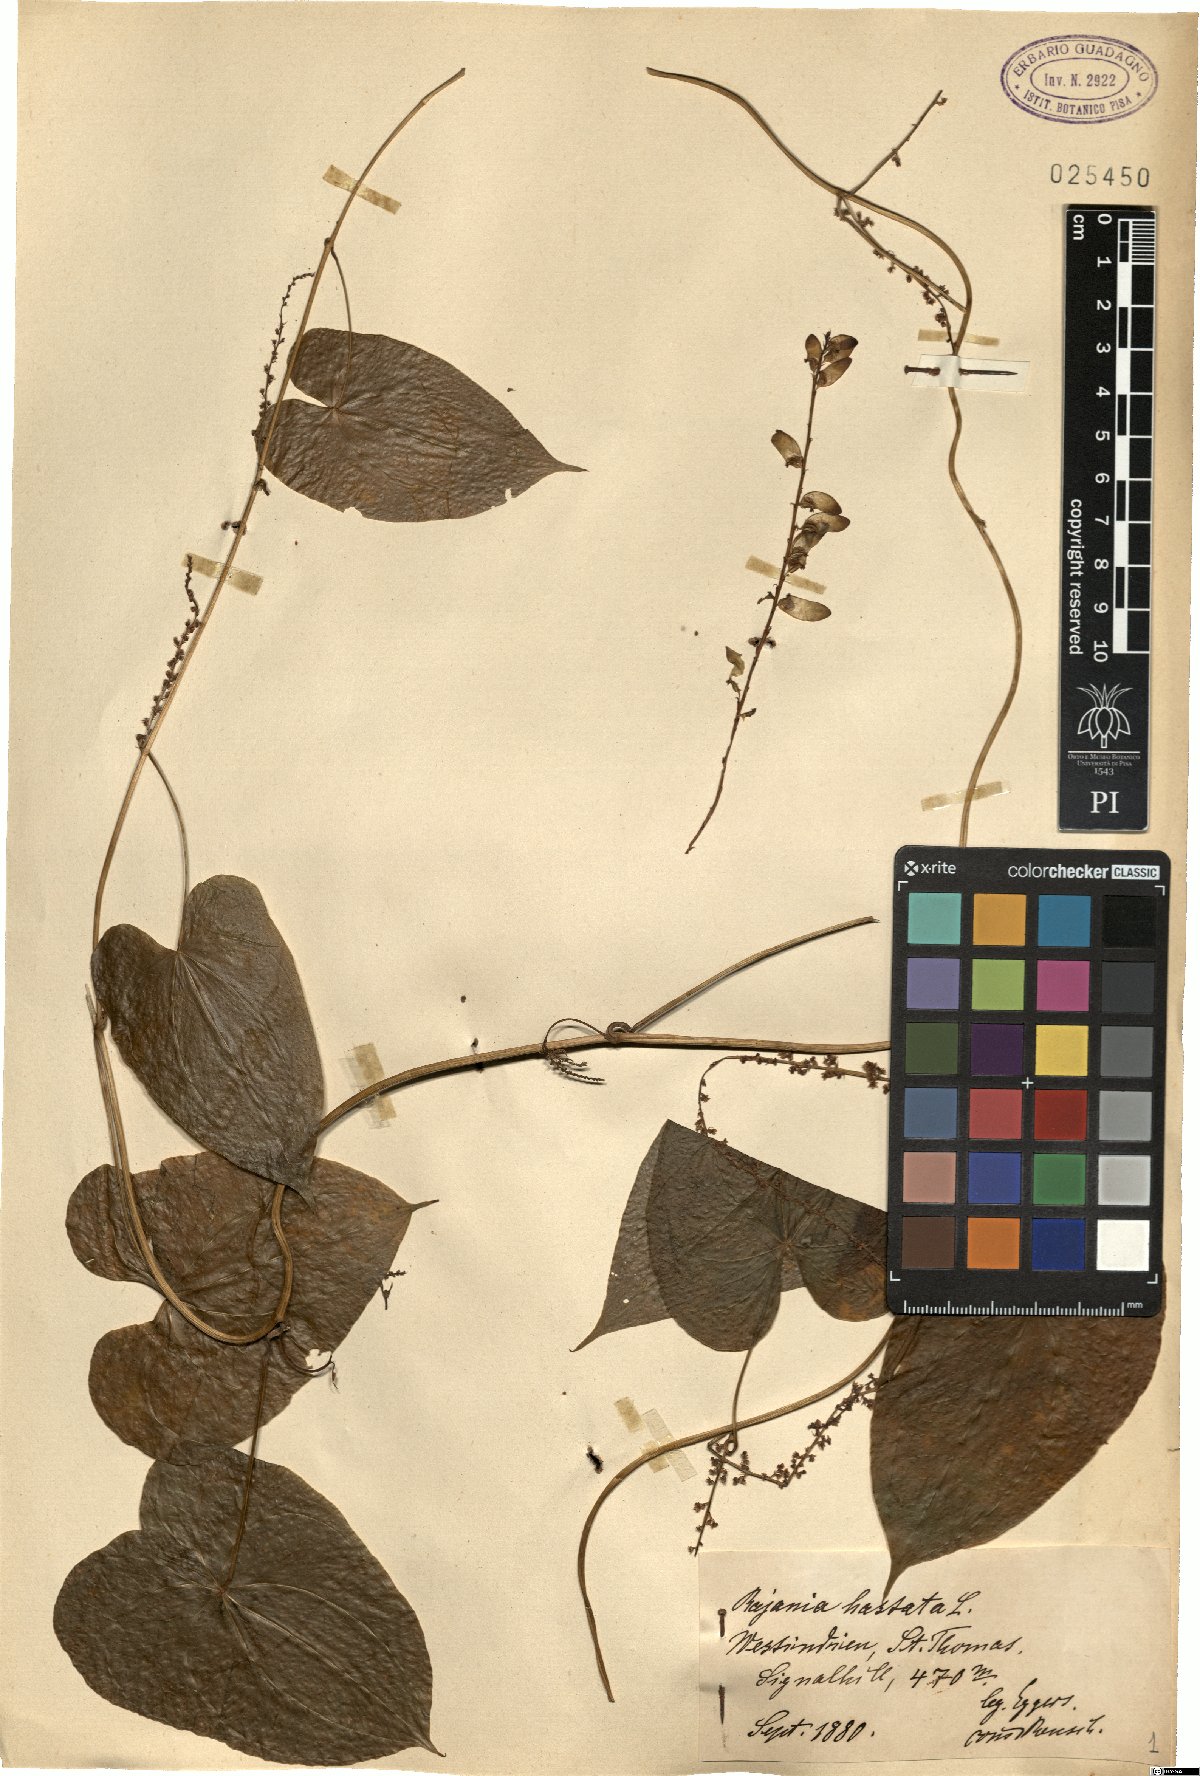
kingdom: Plantae
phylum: Tracheophyta
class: Liliopsida
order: Dioscoreales
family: Dioscoreaceae
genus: Dioscorea
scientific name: Dioscorea alainii
